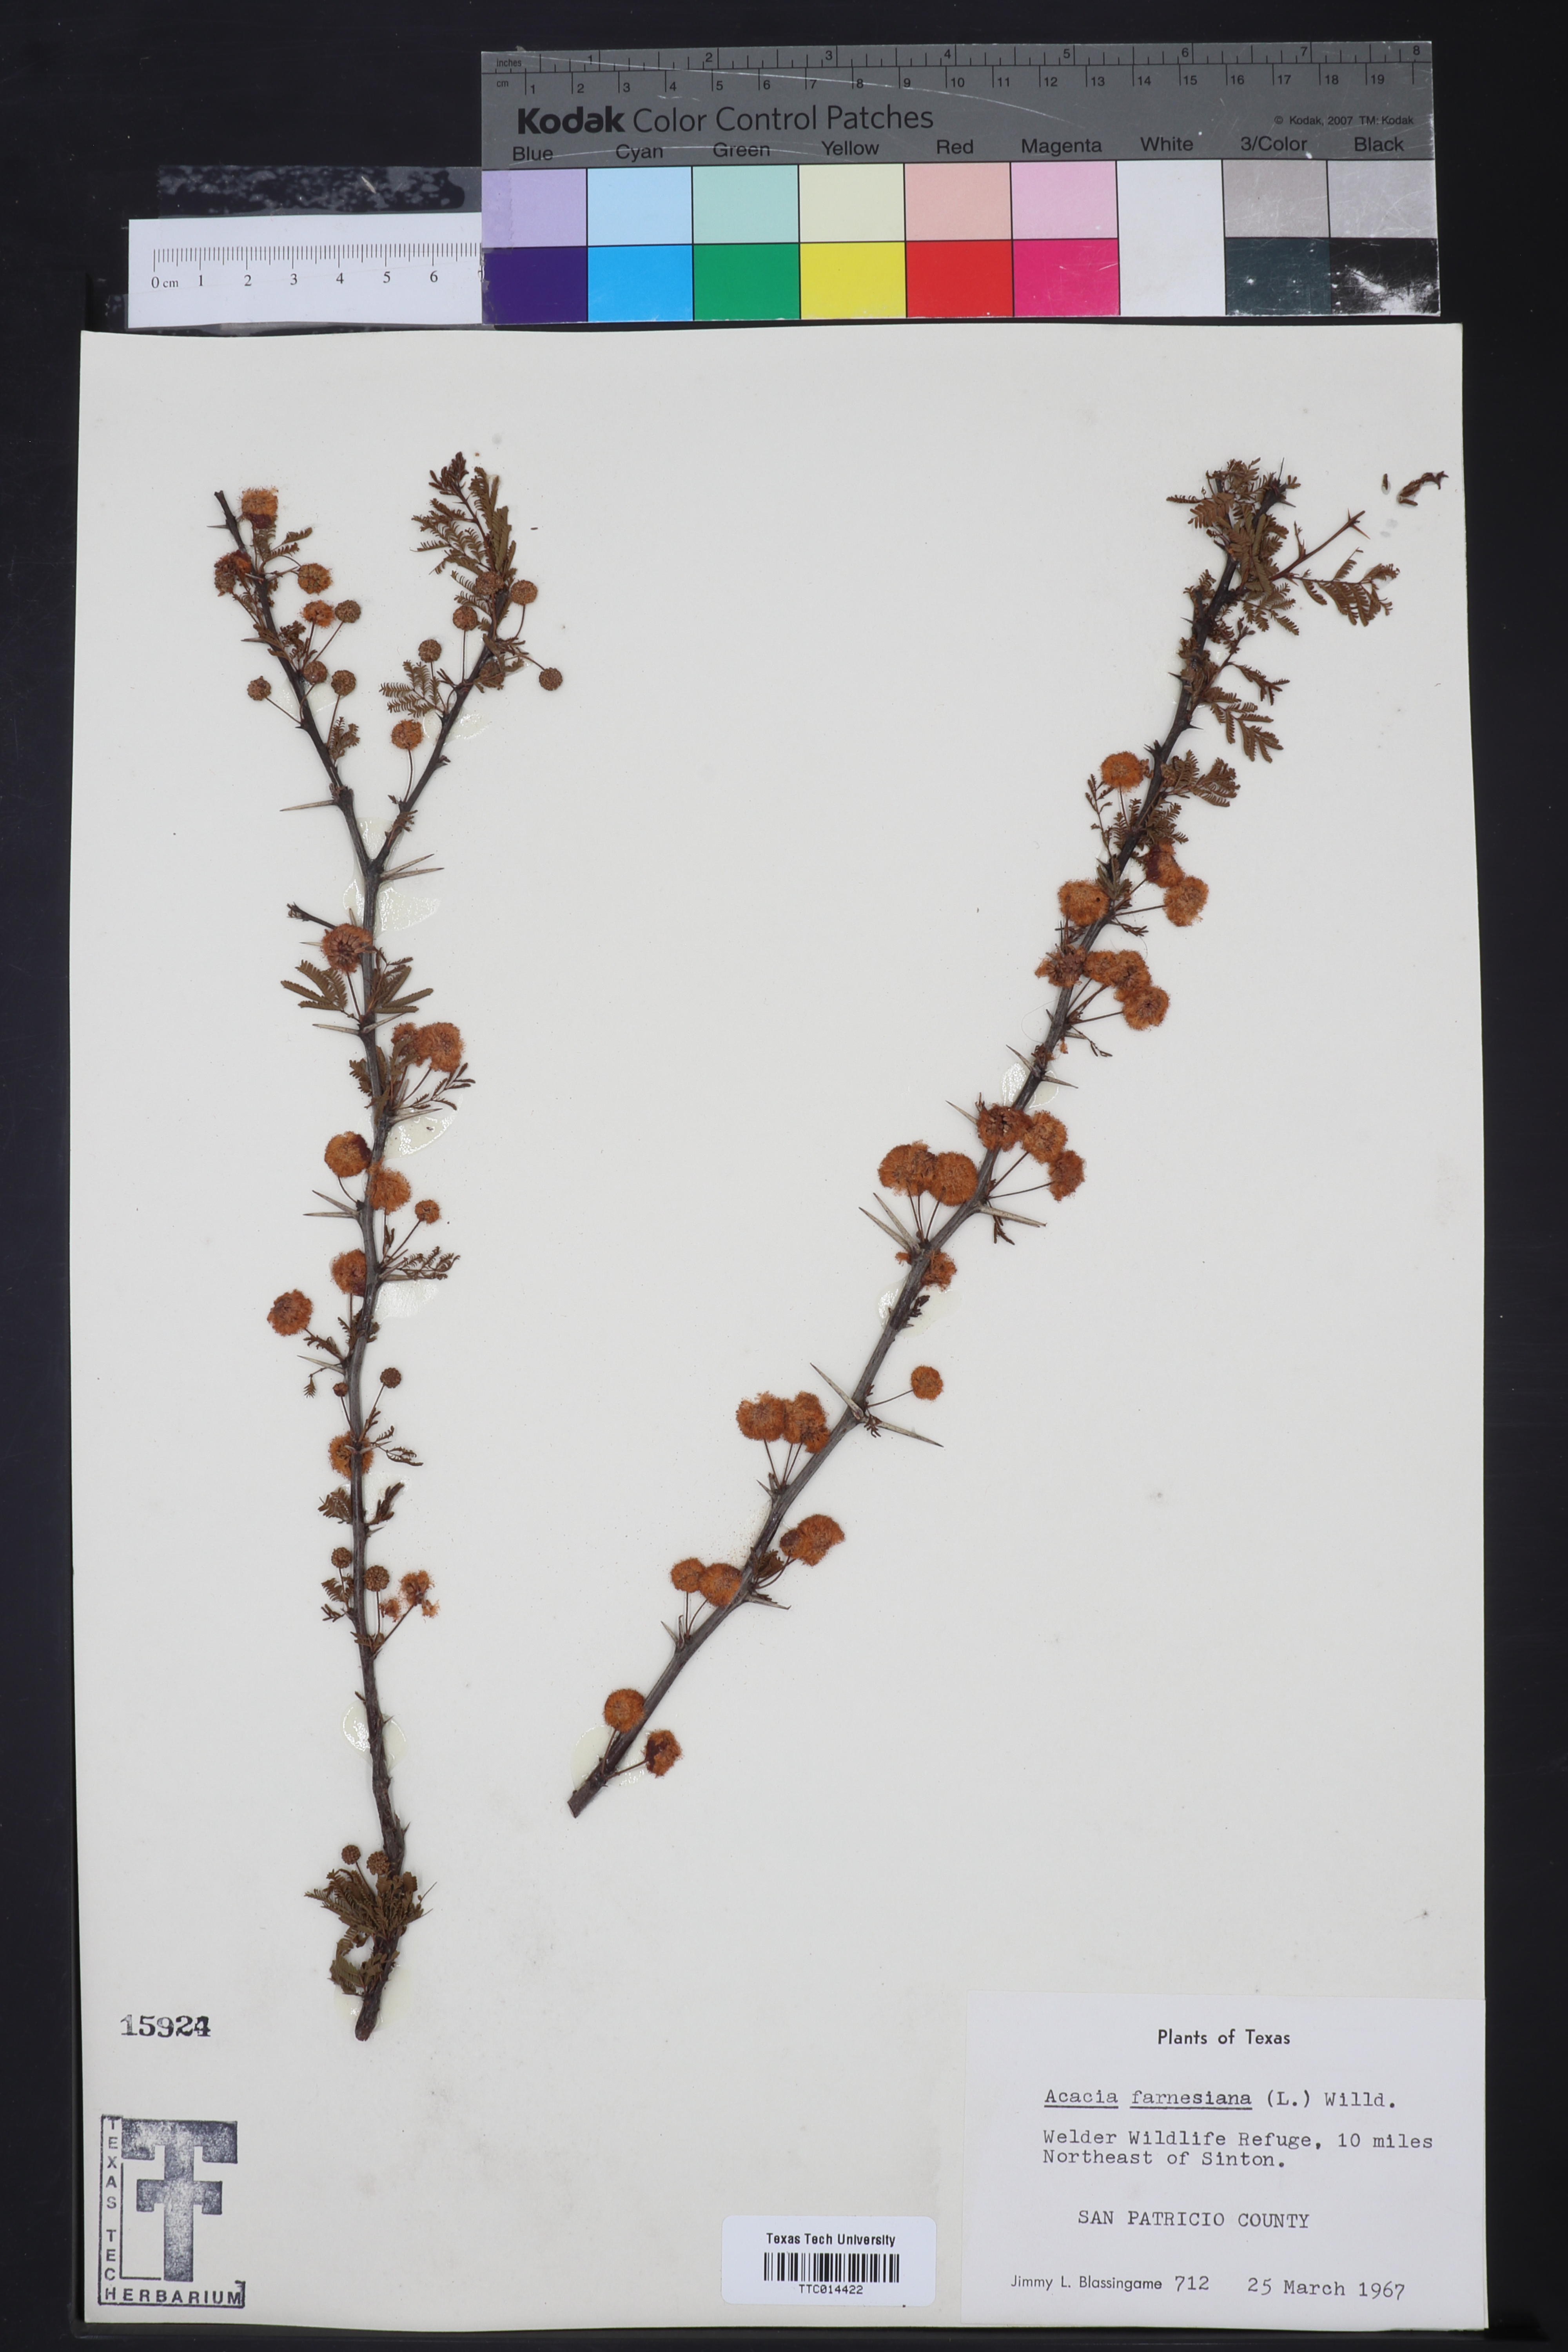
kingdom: Plantae
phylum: Tracheophyta
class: Magnoliopsida
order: Fabales
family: Fabaceae
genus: Vachellia
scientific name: Vachellia farnesiana
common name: Sweet acacia
